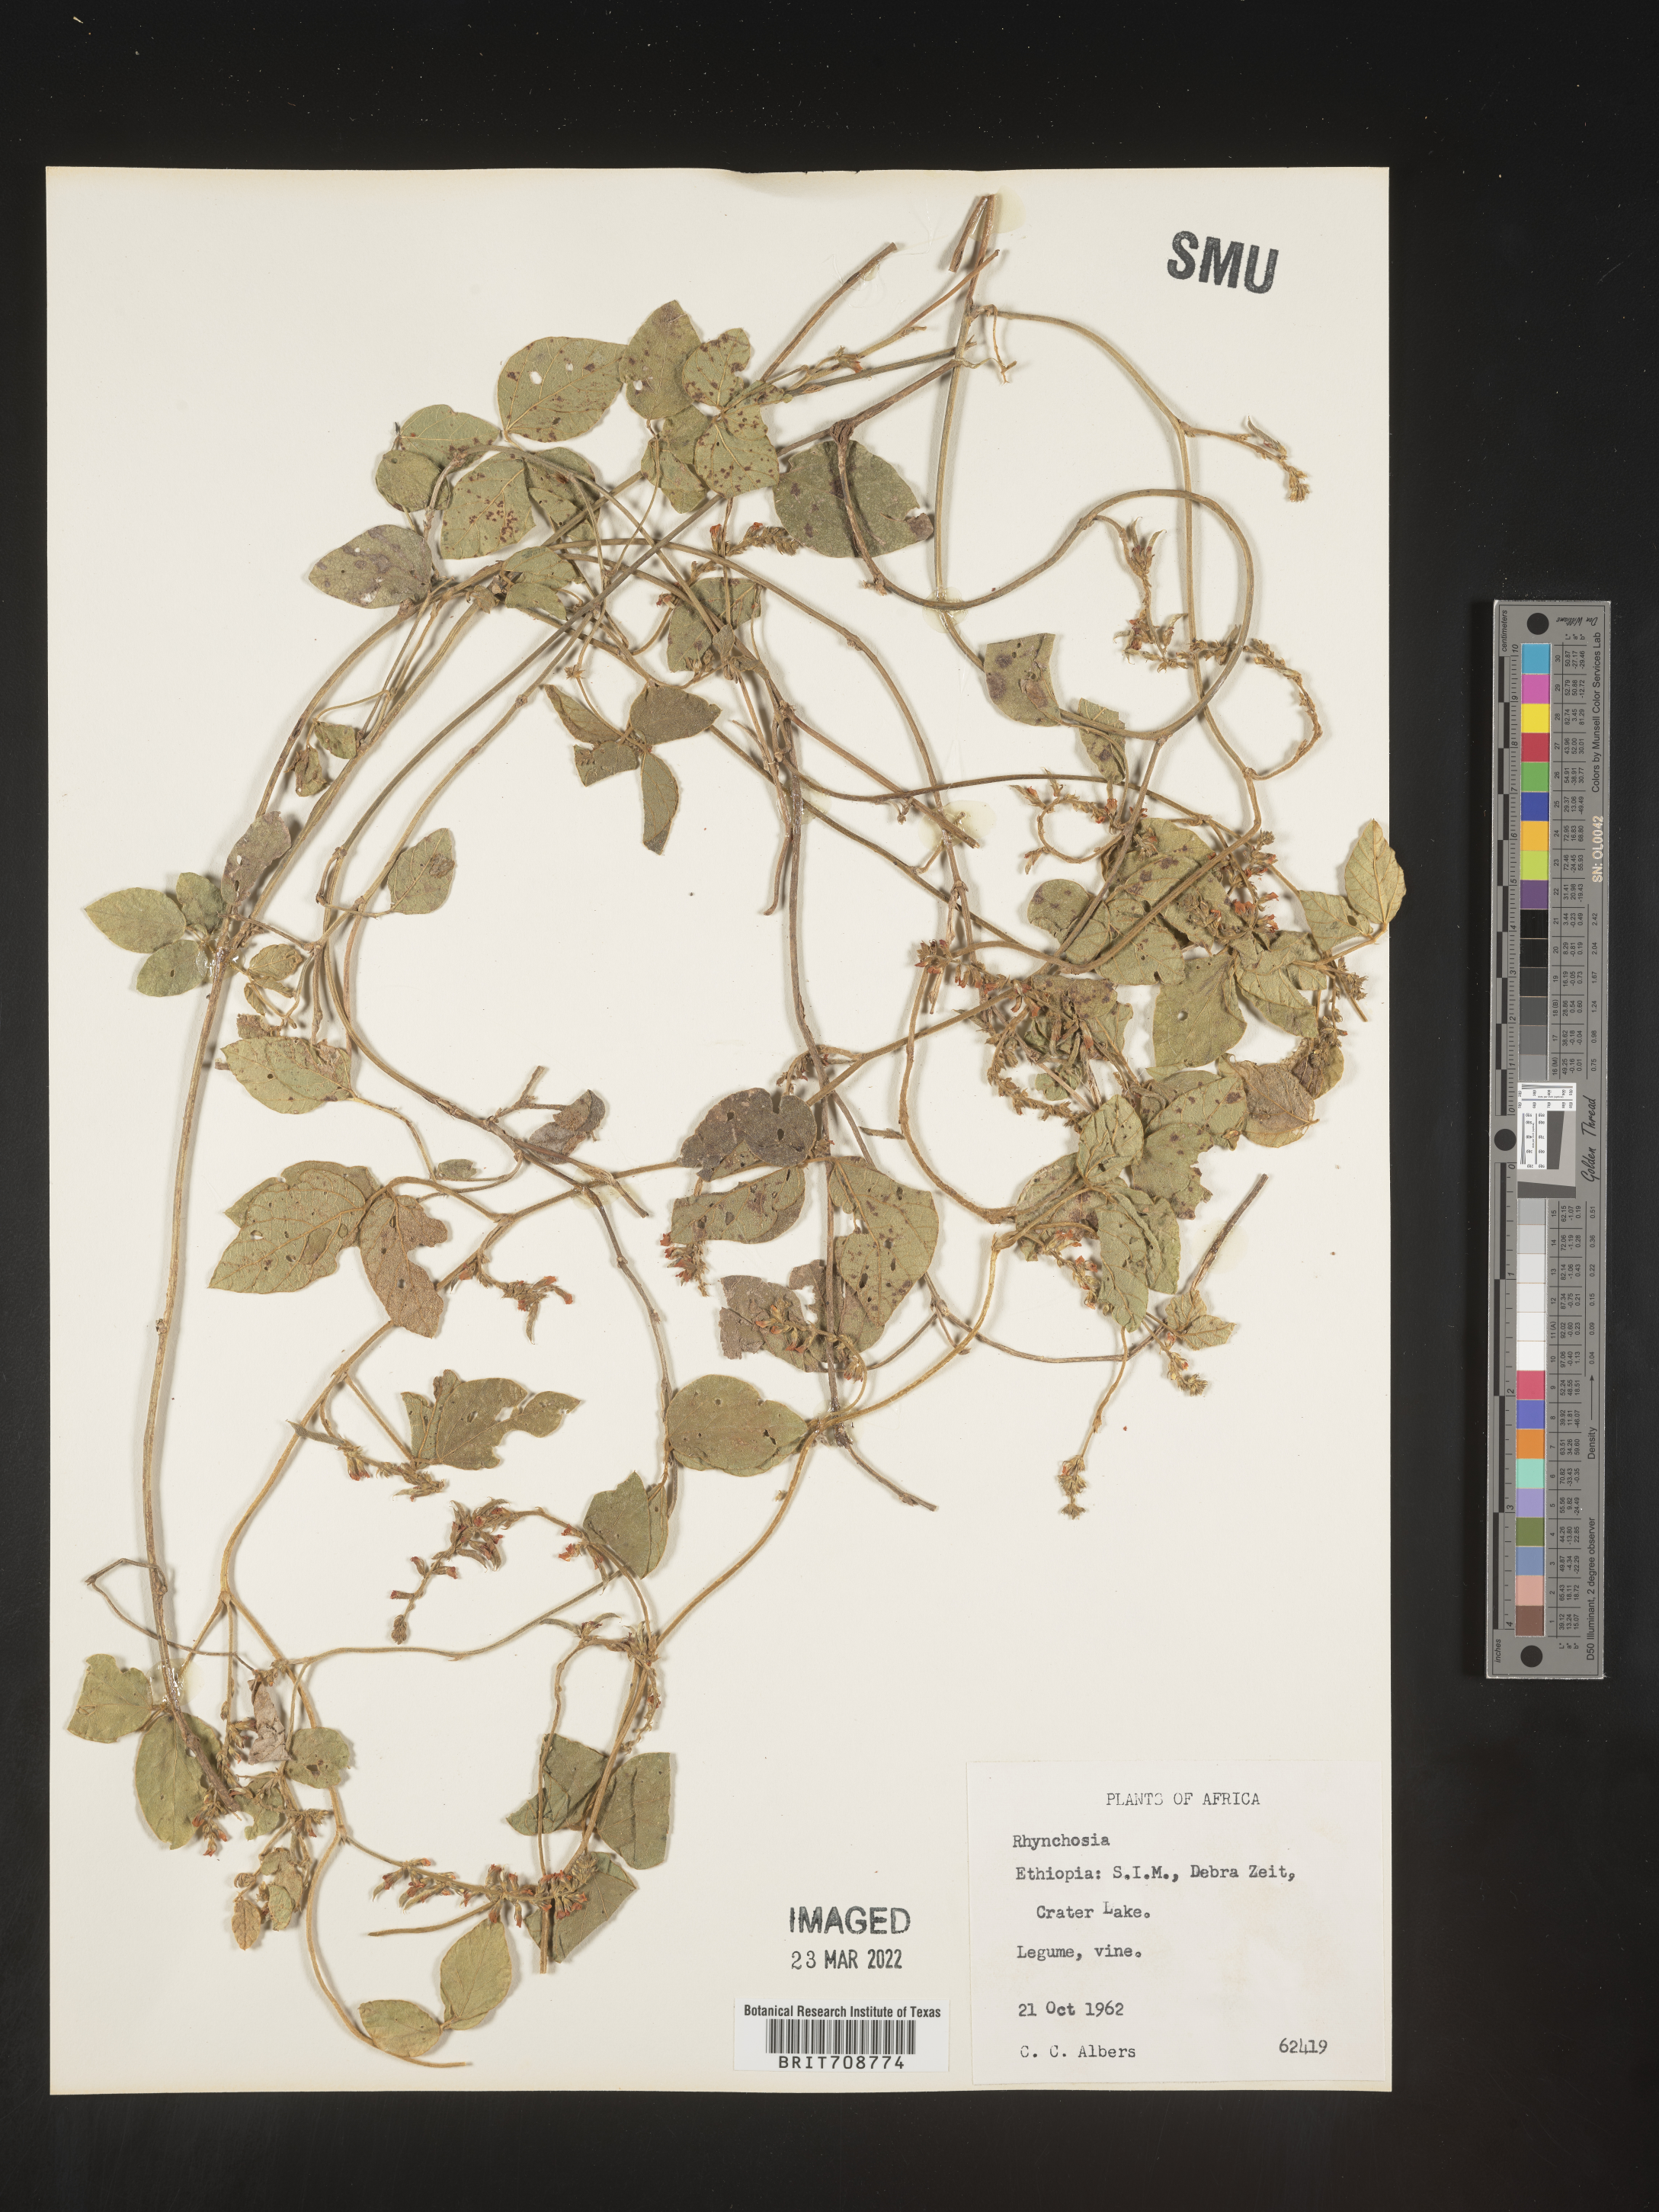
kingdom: Plantae
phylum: Tracheophyta
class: Magnoliopsida
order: Fabales
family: Fabaceae
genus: Rhynchosia
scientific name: Rhynchosia
